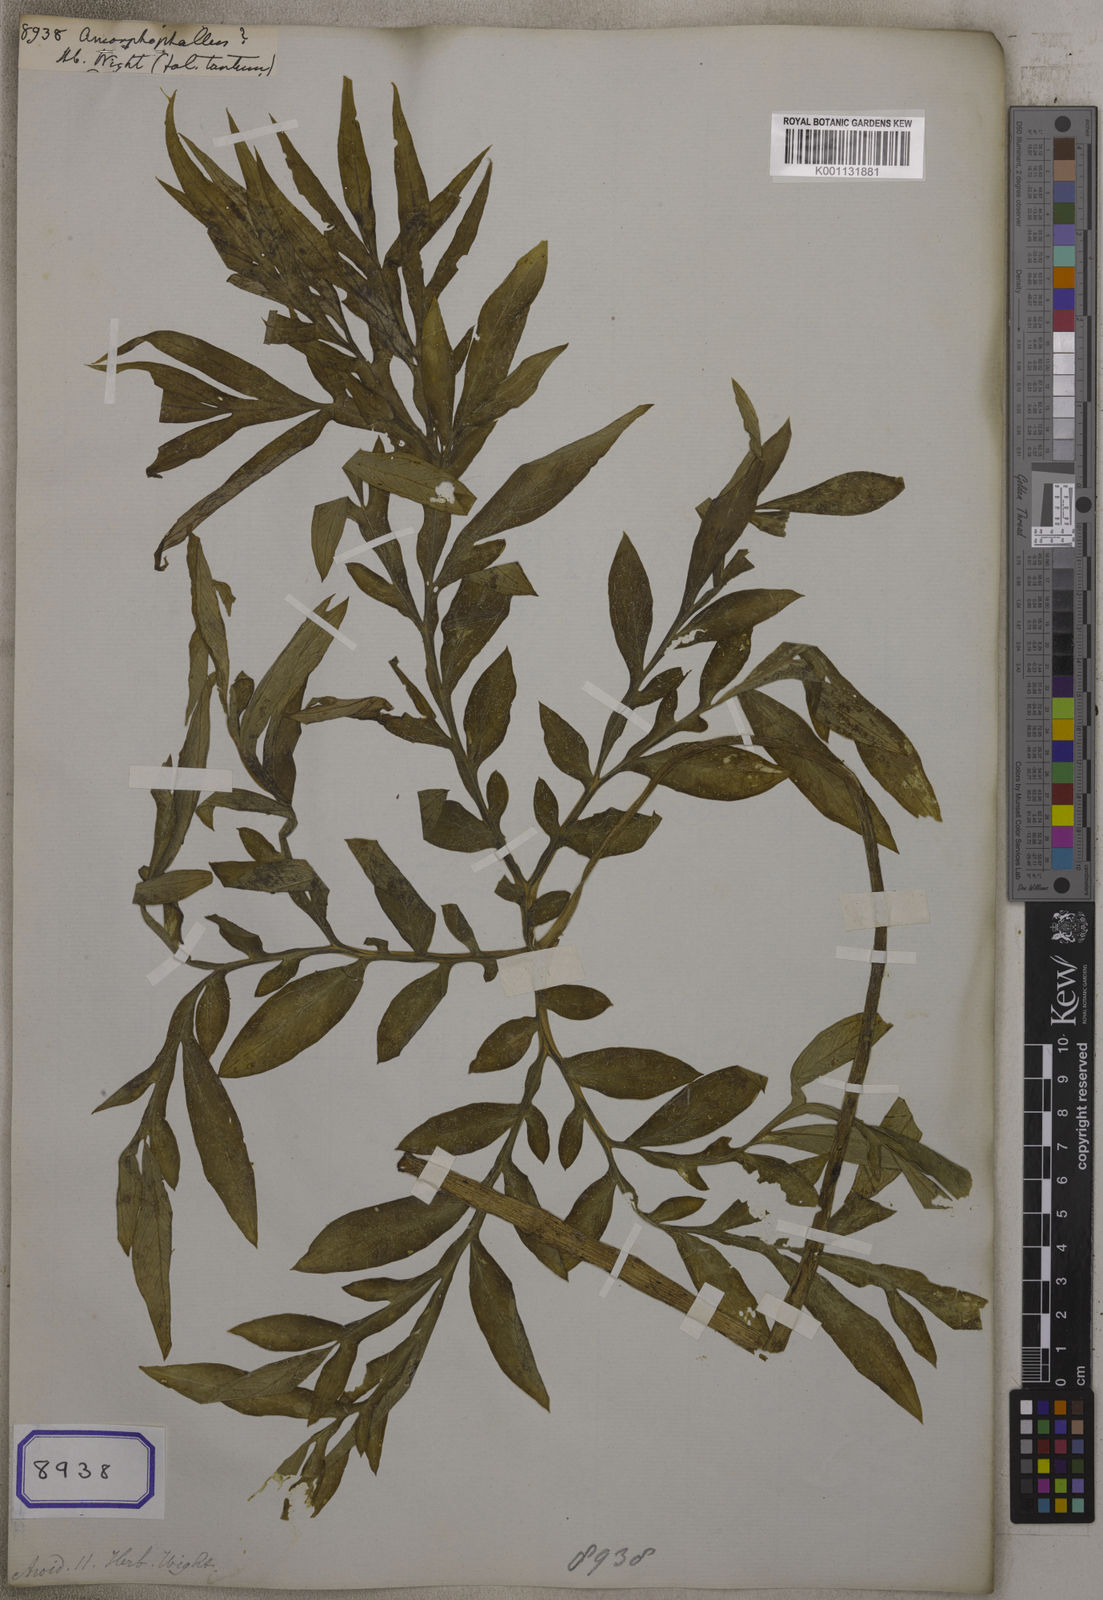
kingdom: Plantae
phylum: Tracheophyta
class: Liliopsida
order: Alismatales
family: Araceae
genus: Amorphophallus
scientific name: Amorphophallus
